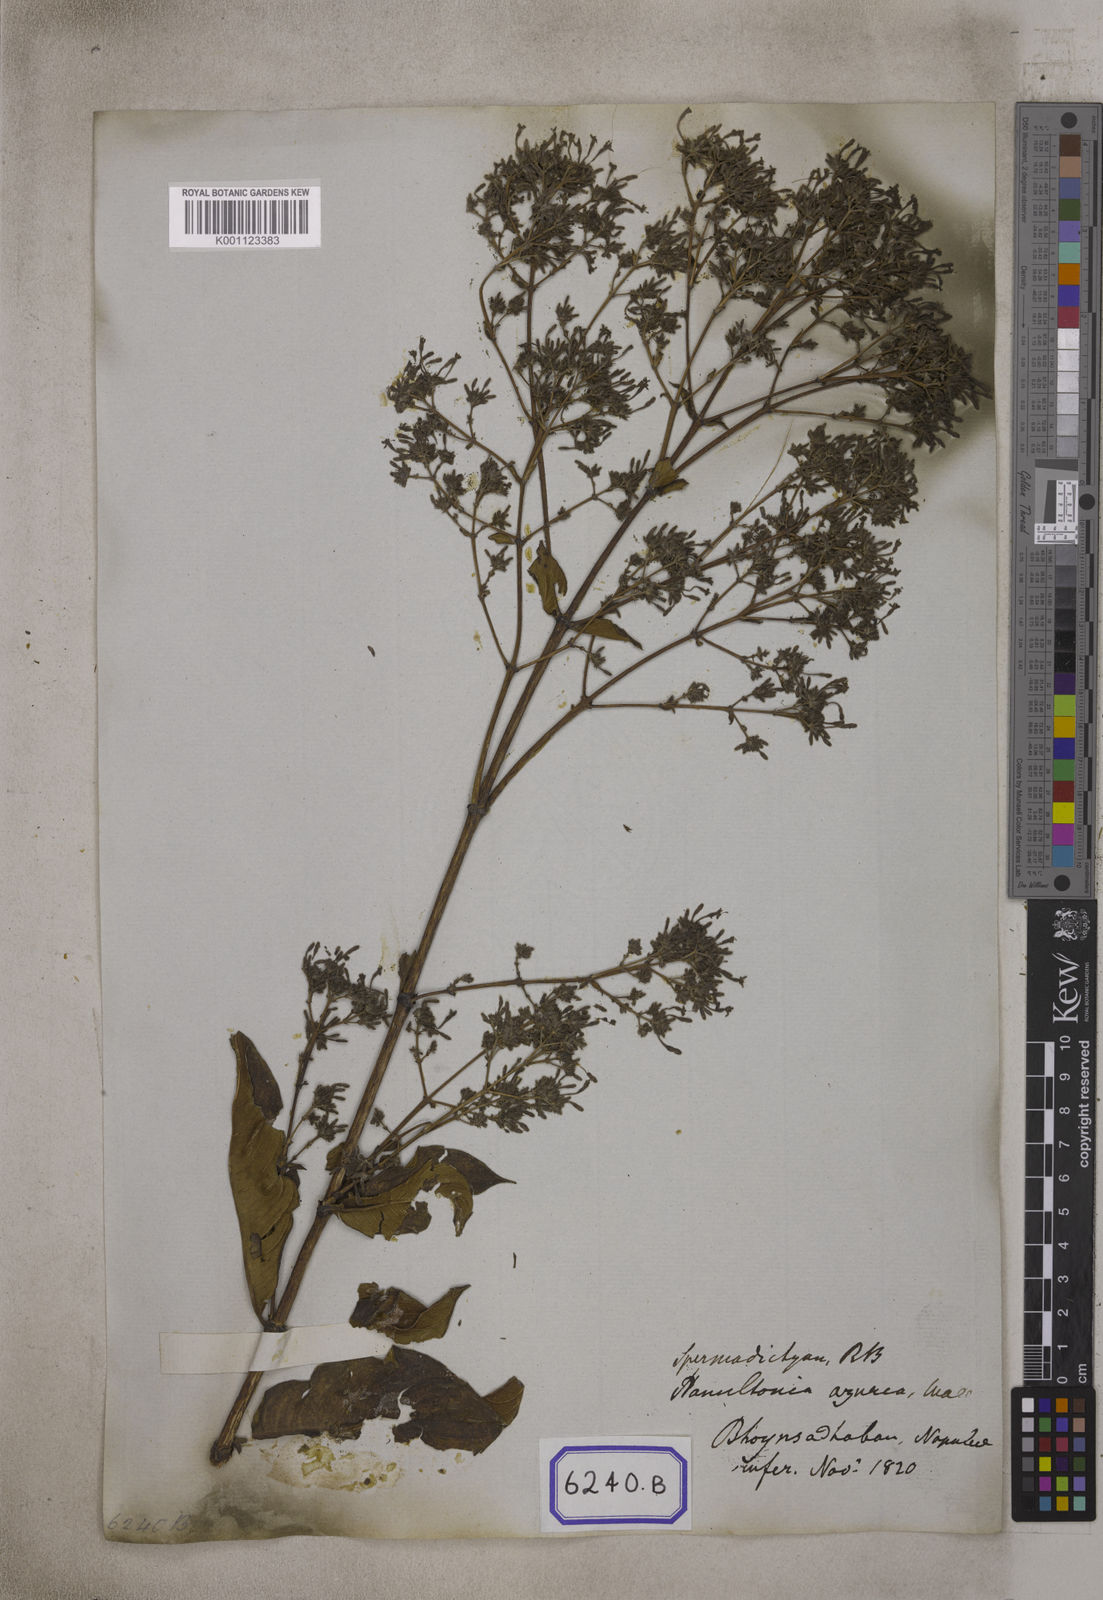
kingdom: Plantae
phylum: Tracheophyta
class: Magnoliopsida
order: Gentianales
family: Rubiaceae
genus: Spermadictyon
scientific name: Spermadictyon suaveolens
